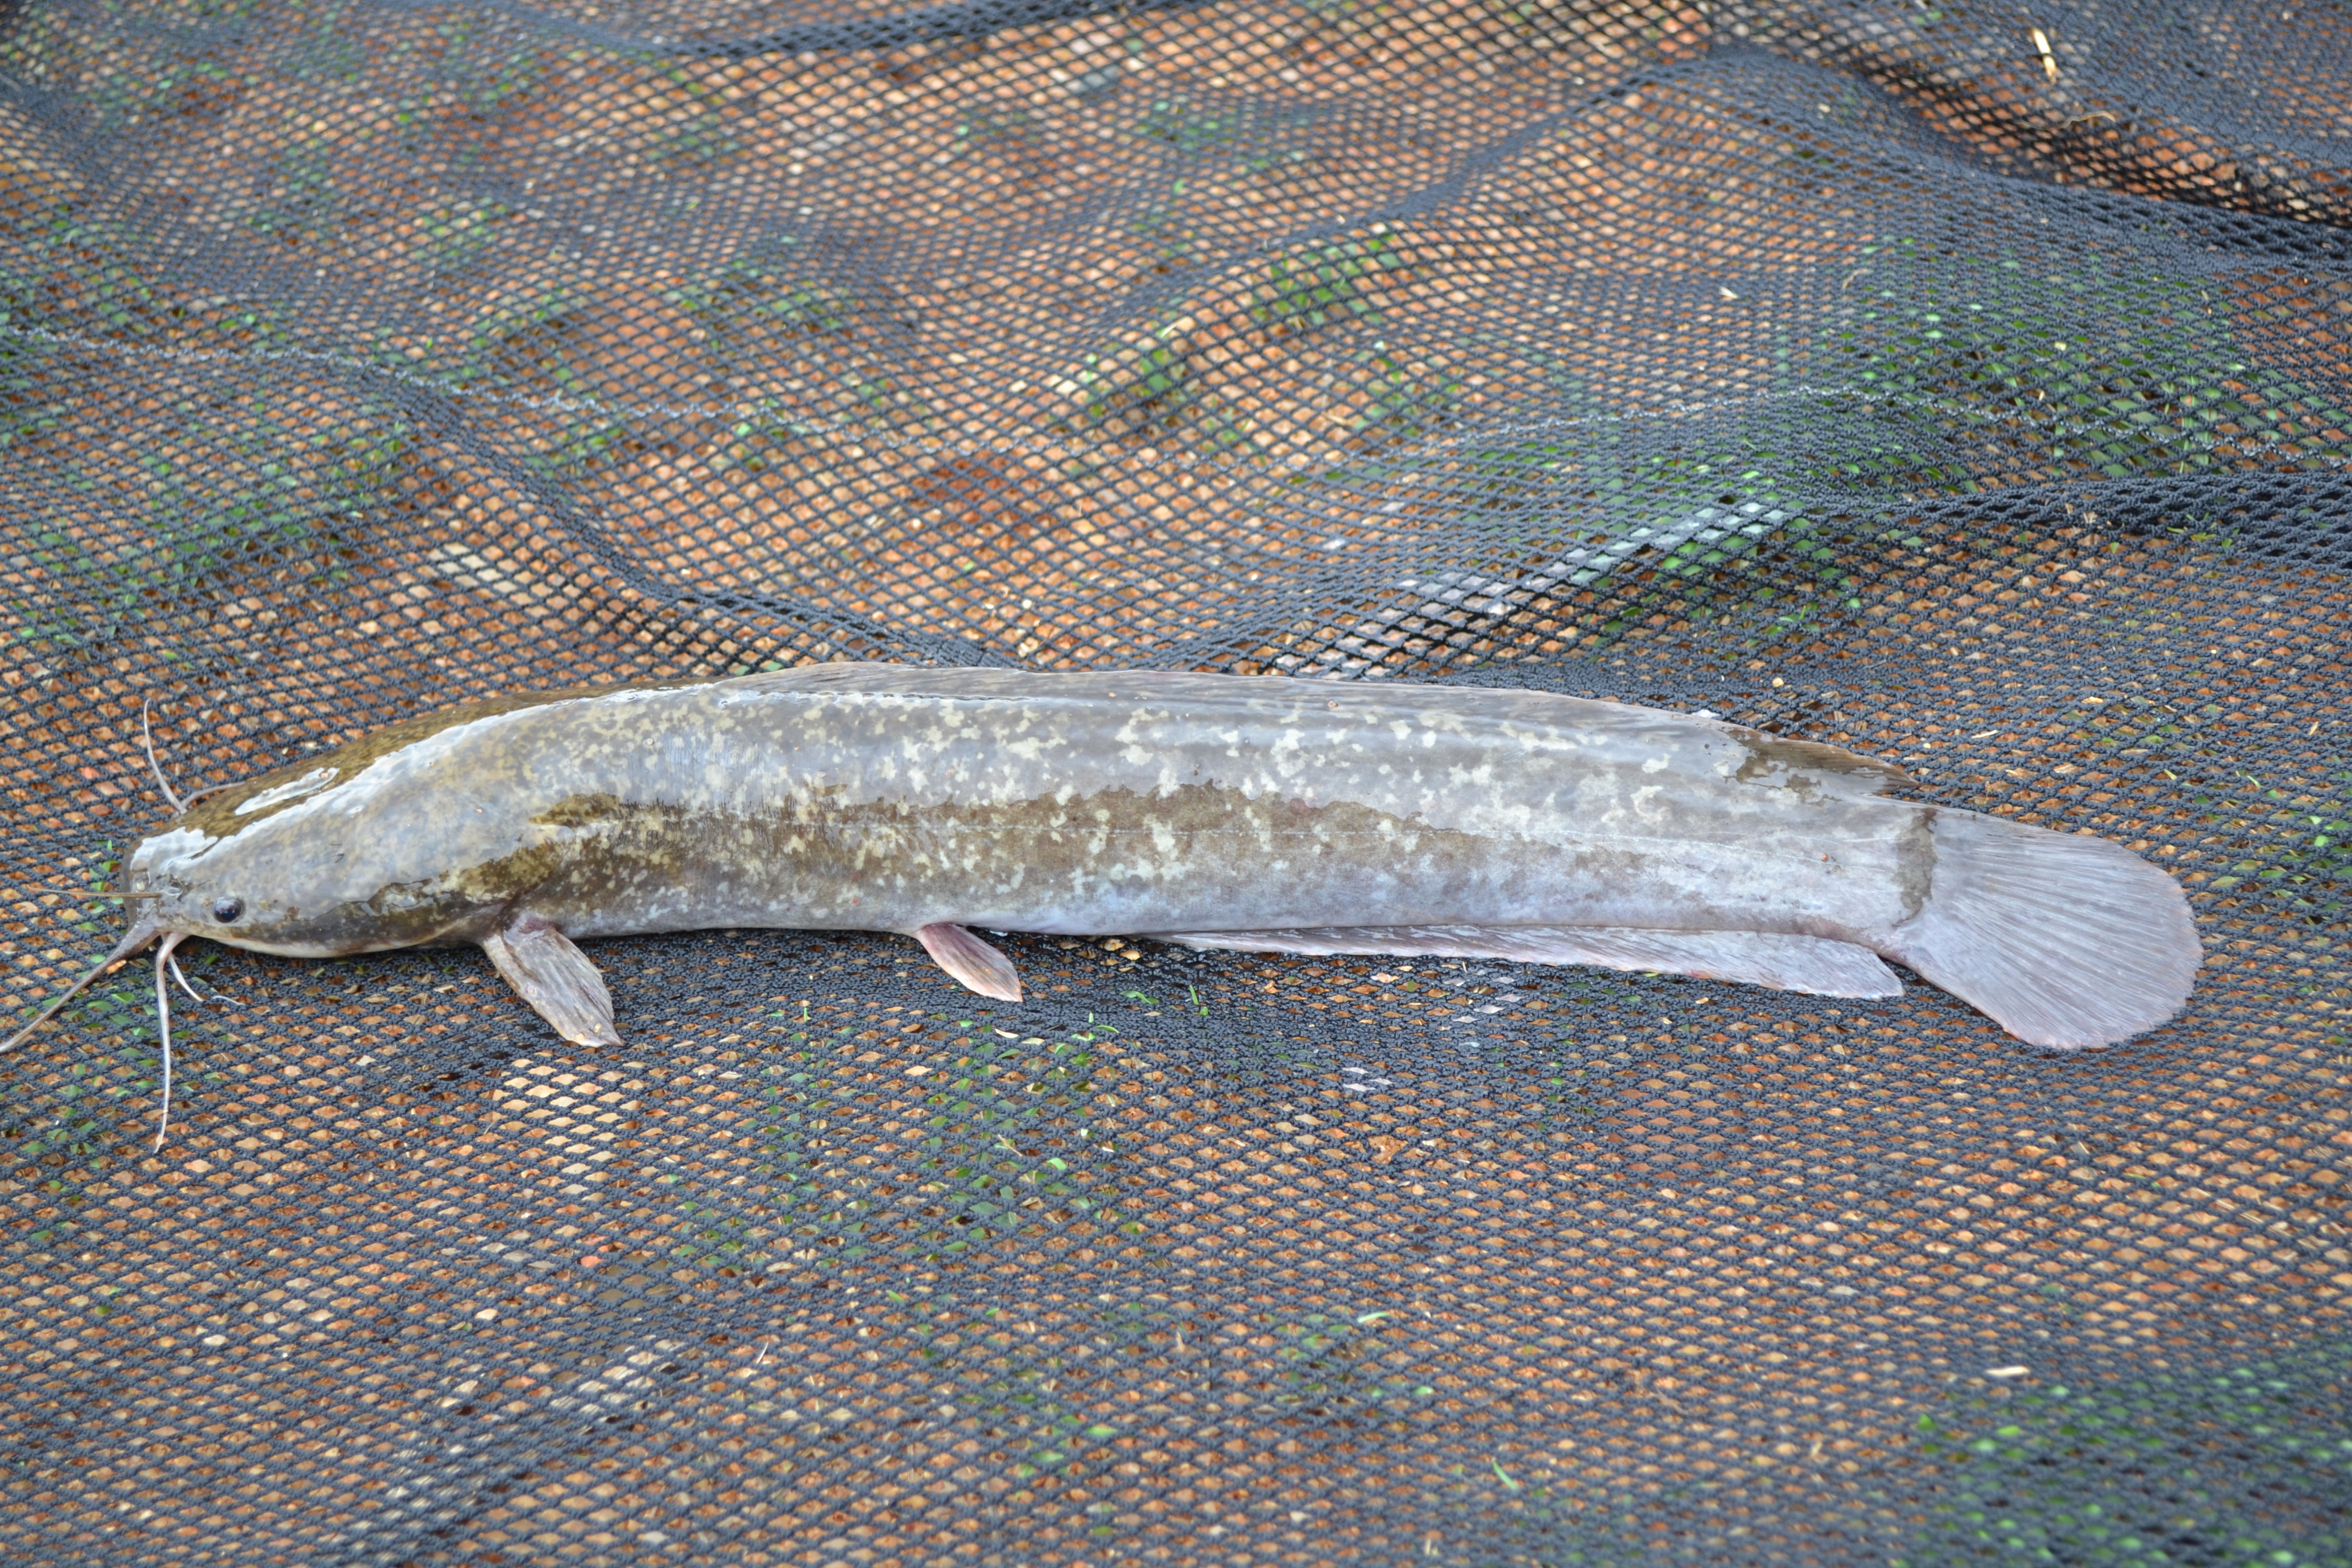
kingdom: Animalia
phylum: Chordata
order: Siluriformes
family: Clariidae
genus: Clarias
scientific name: Clarias gariepinus
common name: African catfish
